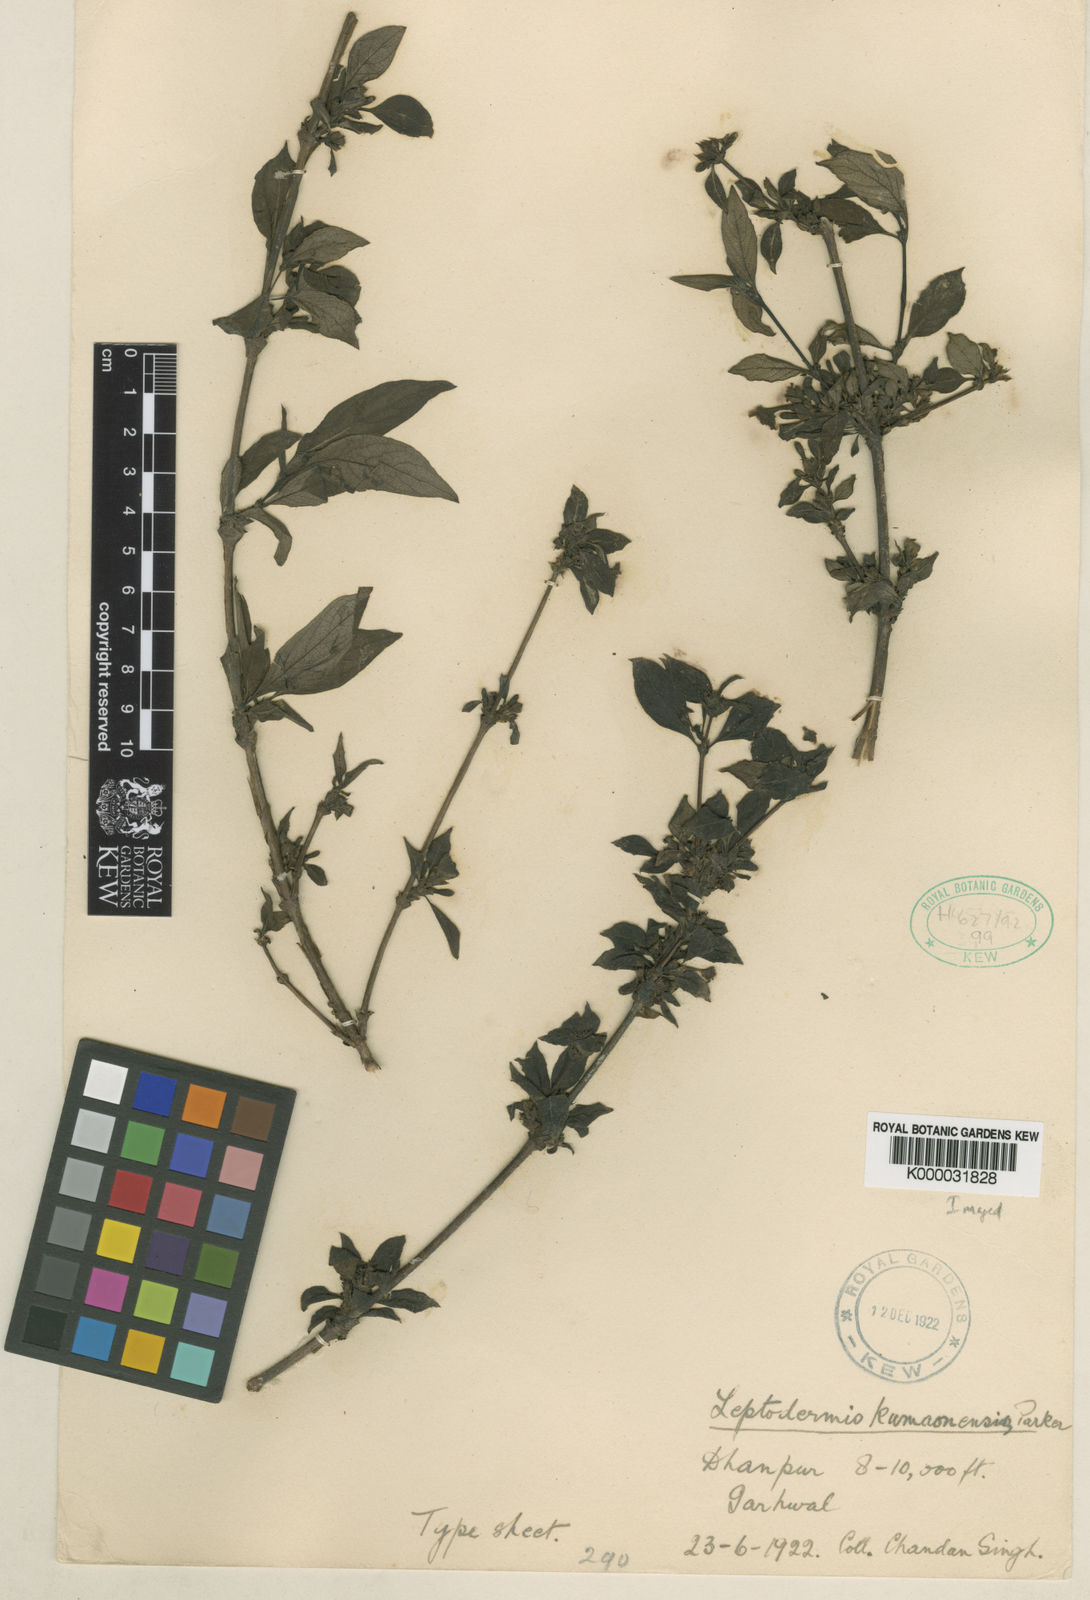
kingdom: Plantae
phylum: Tracheophyta
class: Magnoliopsida
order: Gentianales
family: Rubiaceae
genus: Leptodermis
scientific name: Leptodermis kumaonensis
